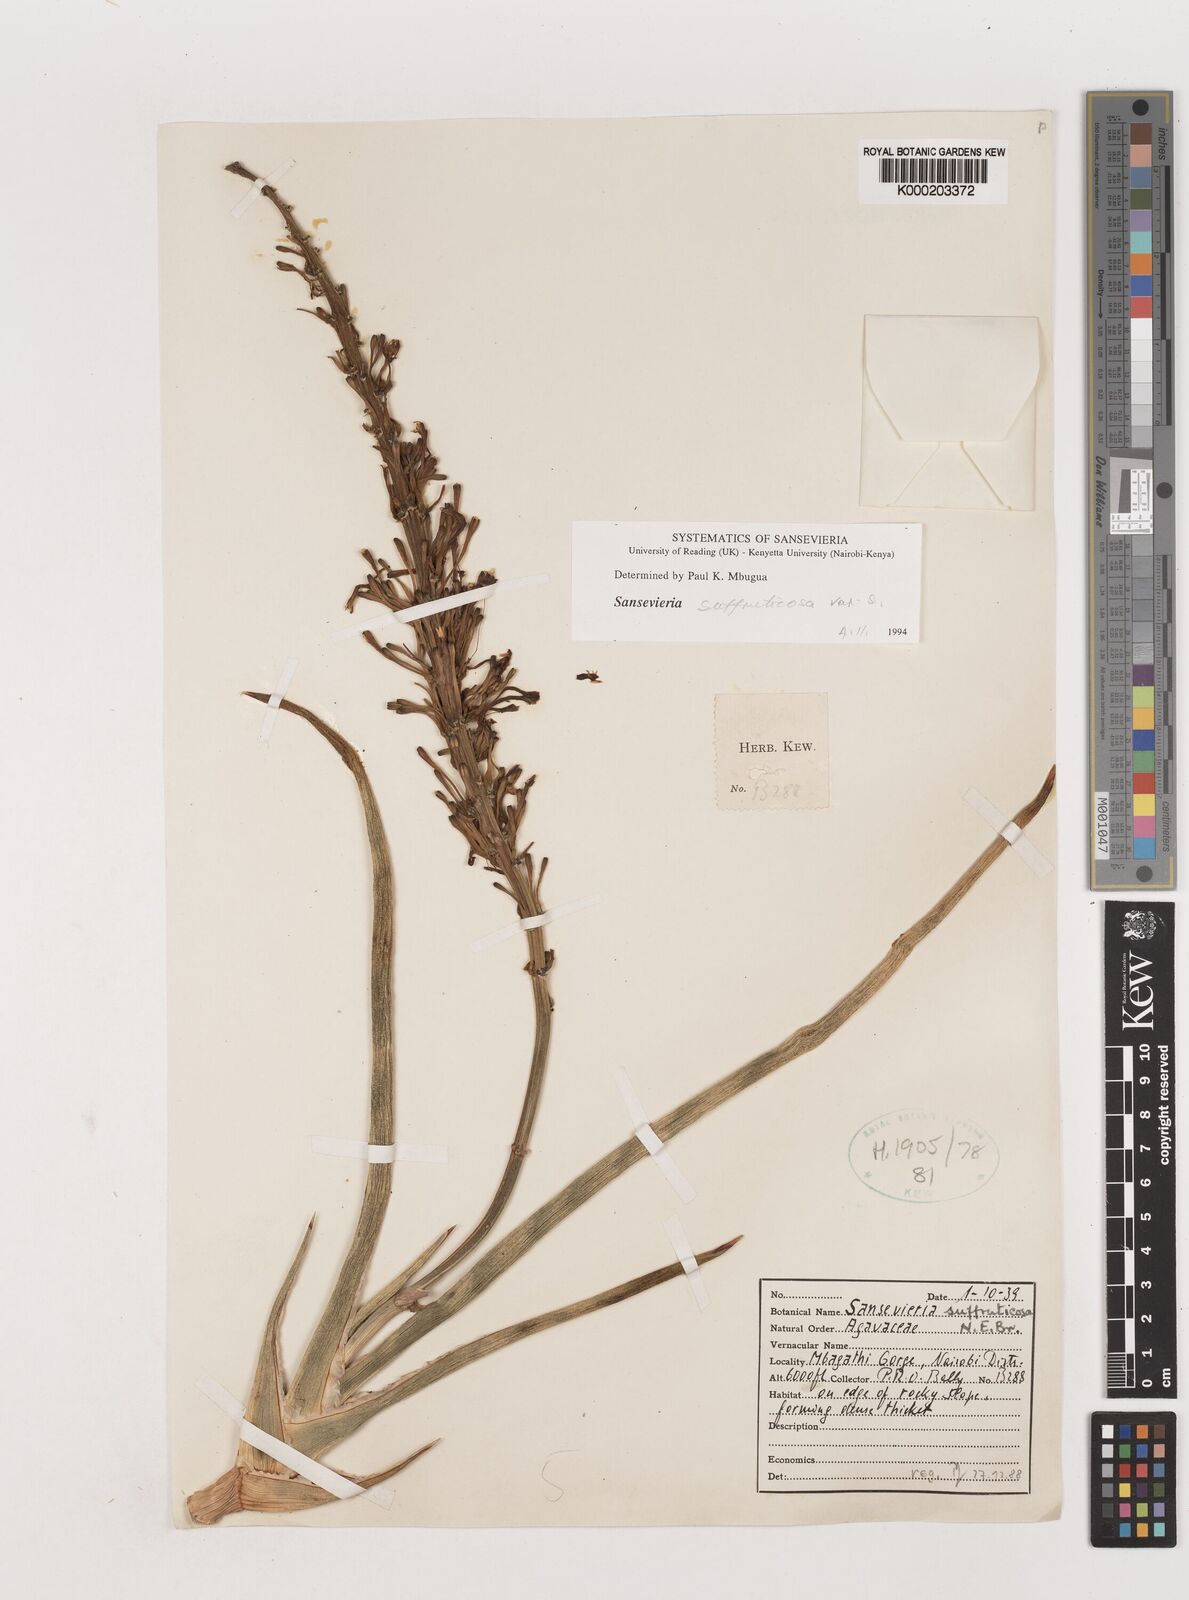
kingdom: Plantae
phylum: Tracheophyta
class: Liliopsida
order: Asparagales
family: Asparagaceae
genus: Dracaena
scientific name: Dracaena suffruticosa
